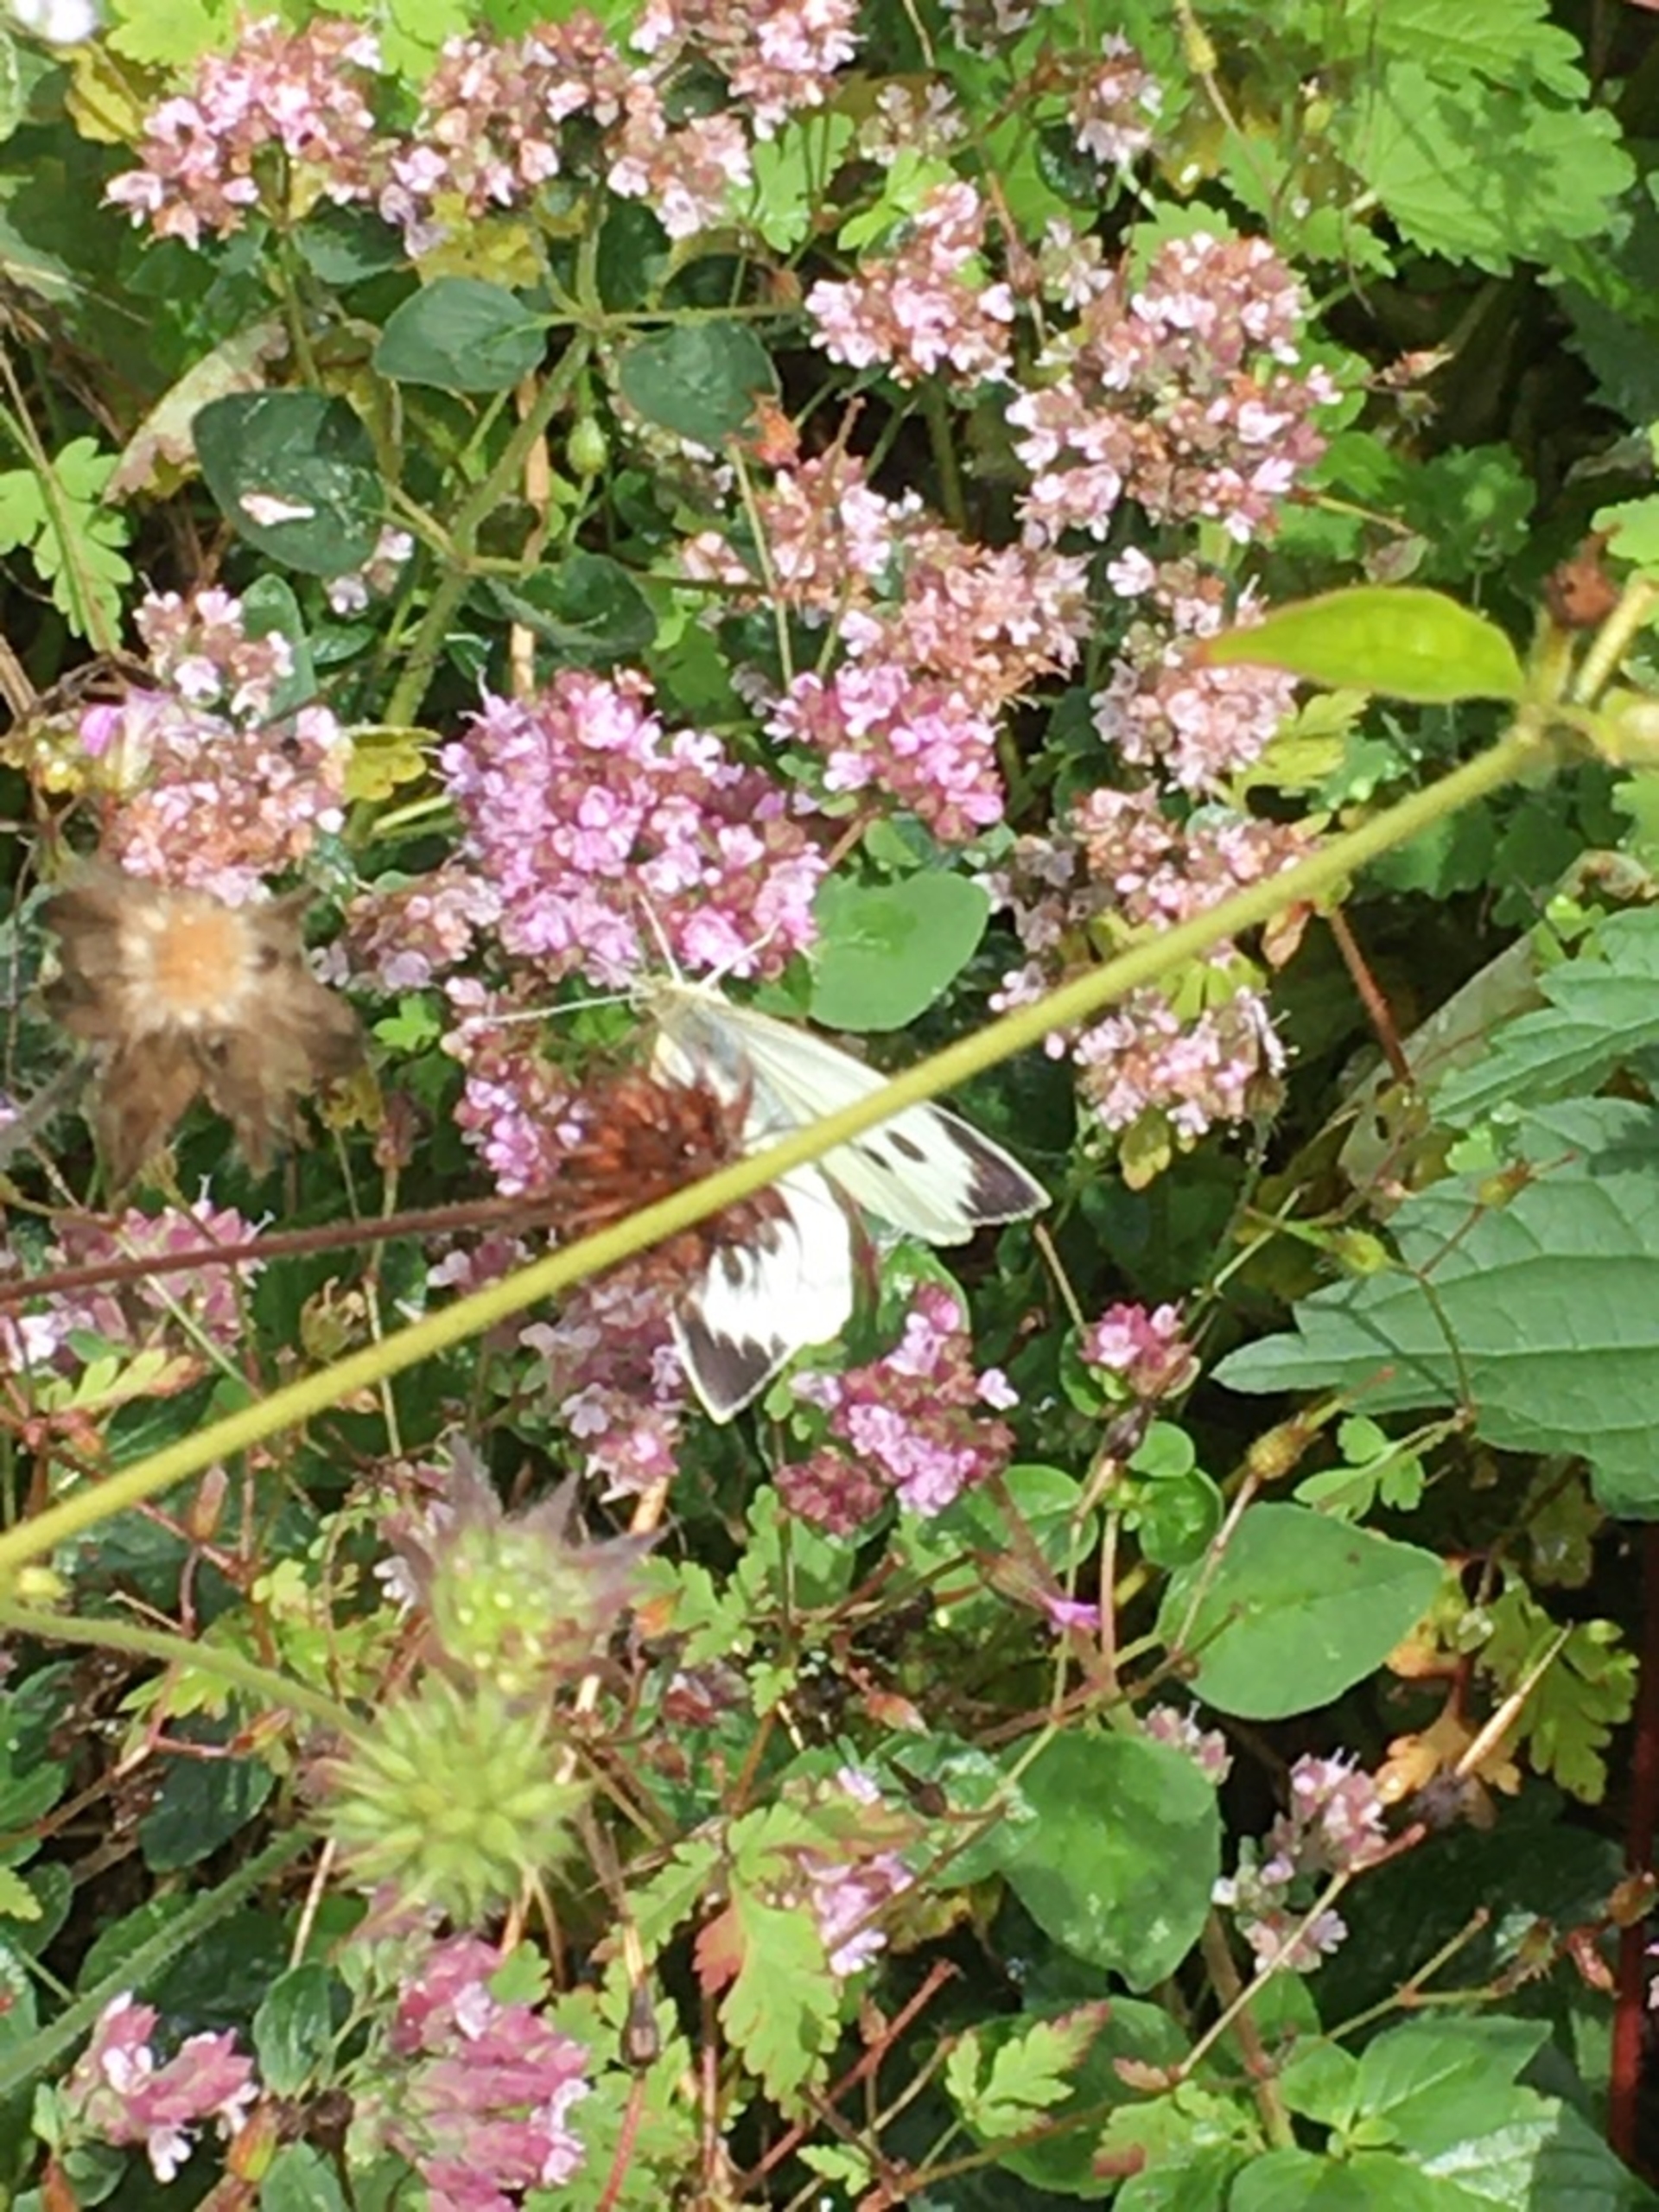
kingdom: Animalia
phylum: Arthropoda
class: Insecta
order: Lepidoptera
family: Pieridae
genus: Pieris
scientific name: Pieris brassicae
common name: Stor kålsommerfugl
